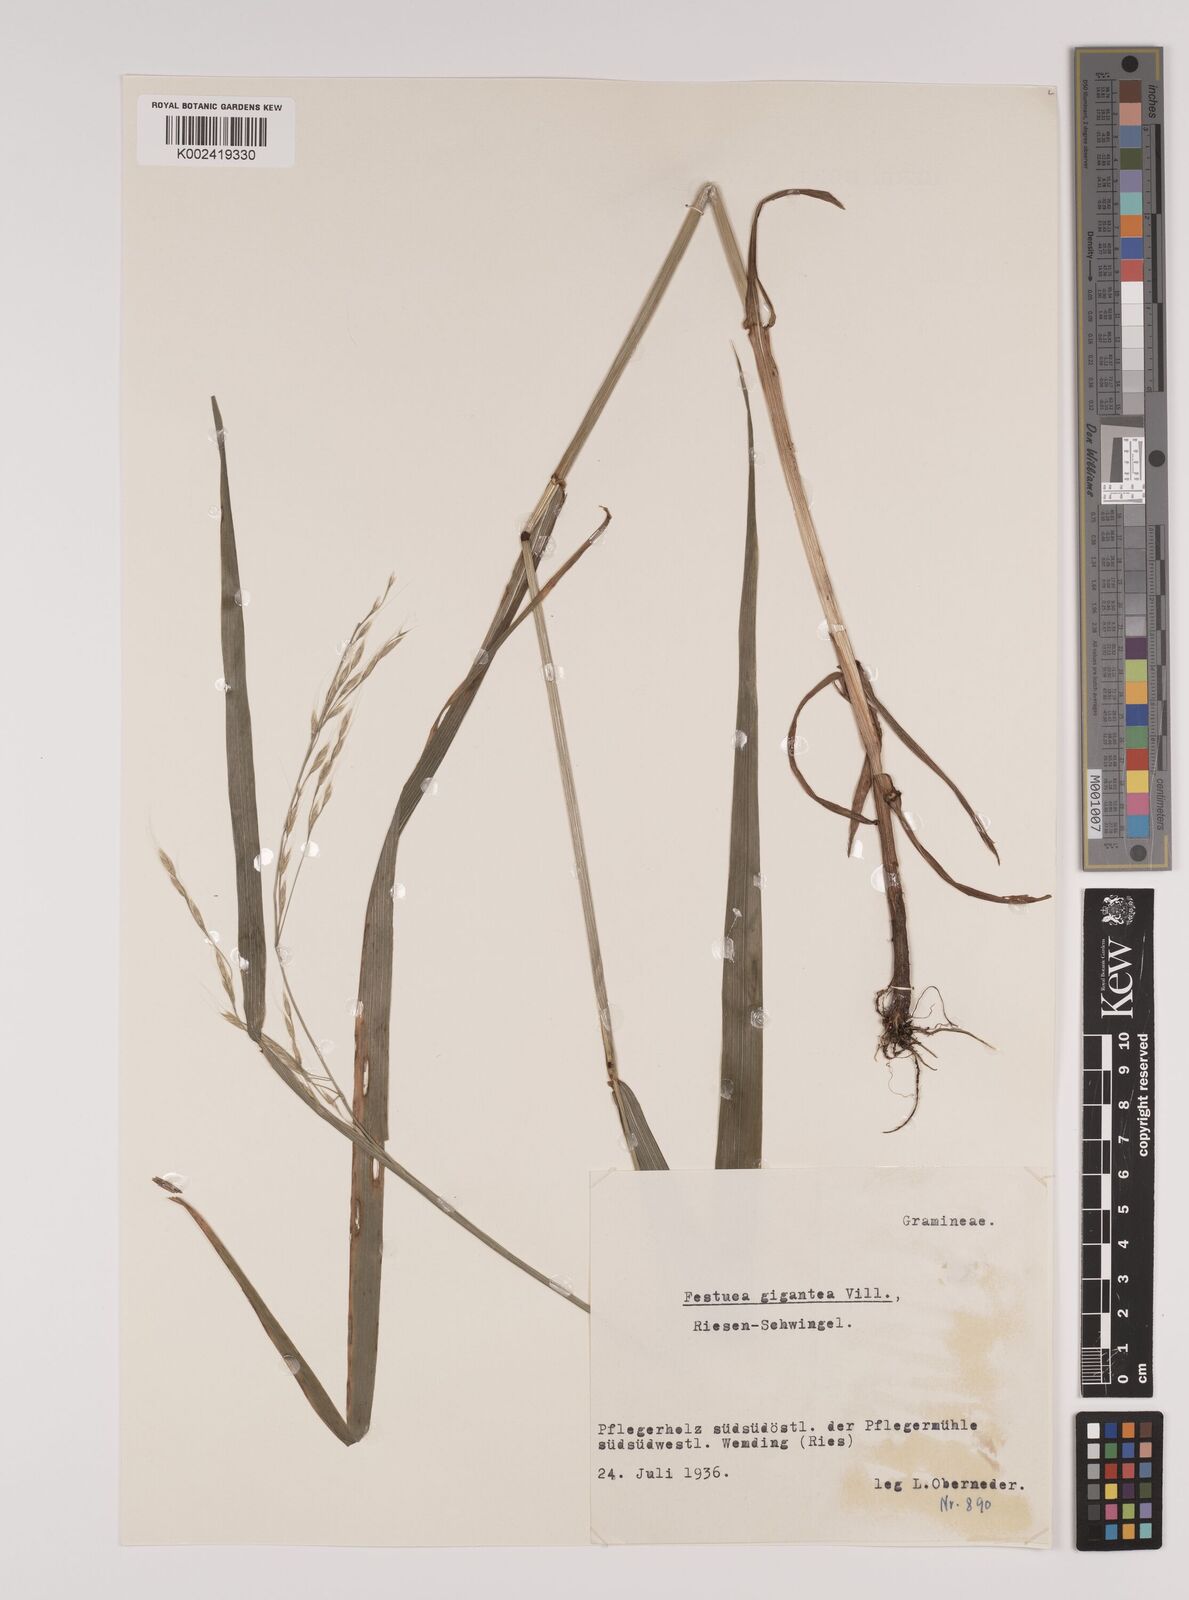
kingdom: Plantae
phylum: Tracheophyta
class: Liliopsida
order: Poales
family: Poaceae
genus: Lolium
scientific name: Lolium giganteum
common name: Giant fescue
